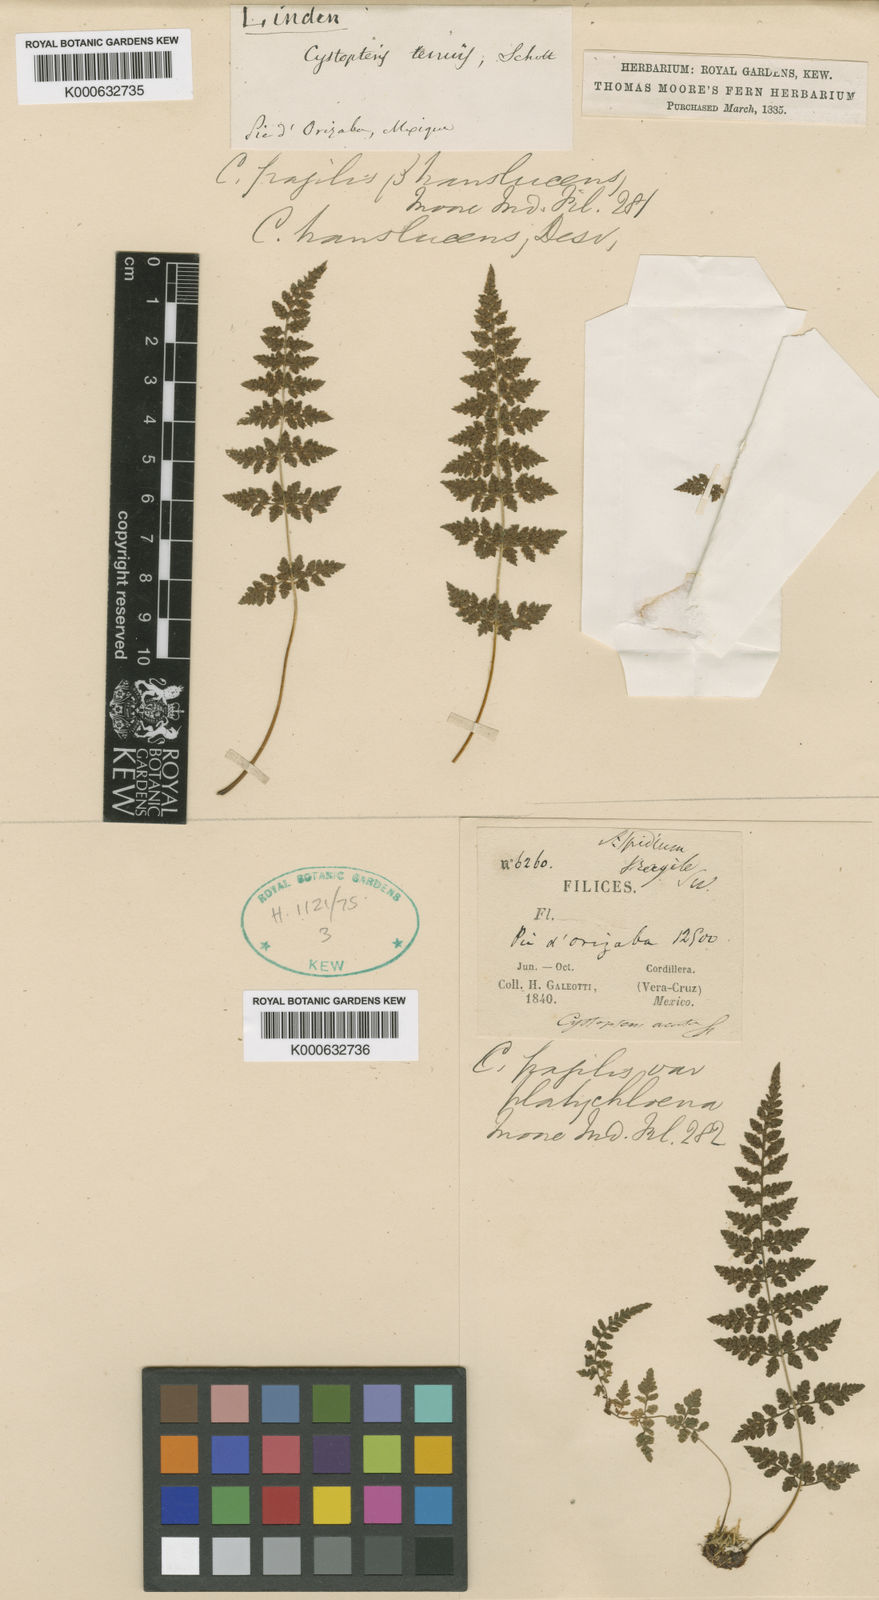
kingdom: Plantae
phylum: Tracheophyta
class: Polypodiopsida
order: Polypodiales
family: Cystopteridaceae
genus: Cystopteris
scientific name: Cystopteris fragilis
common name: Brittle bladder fern
